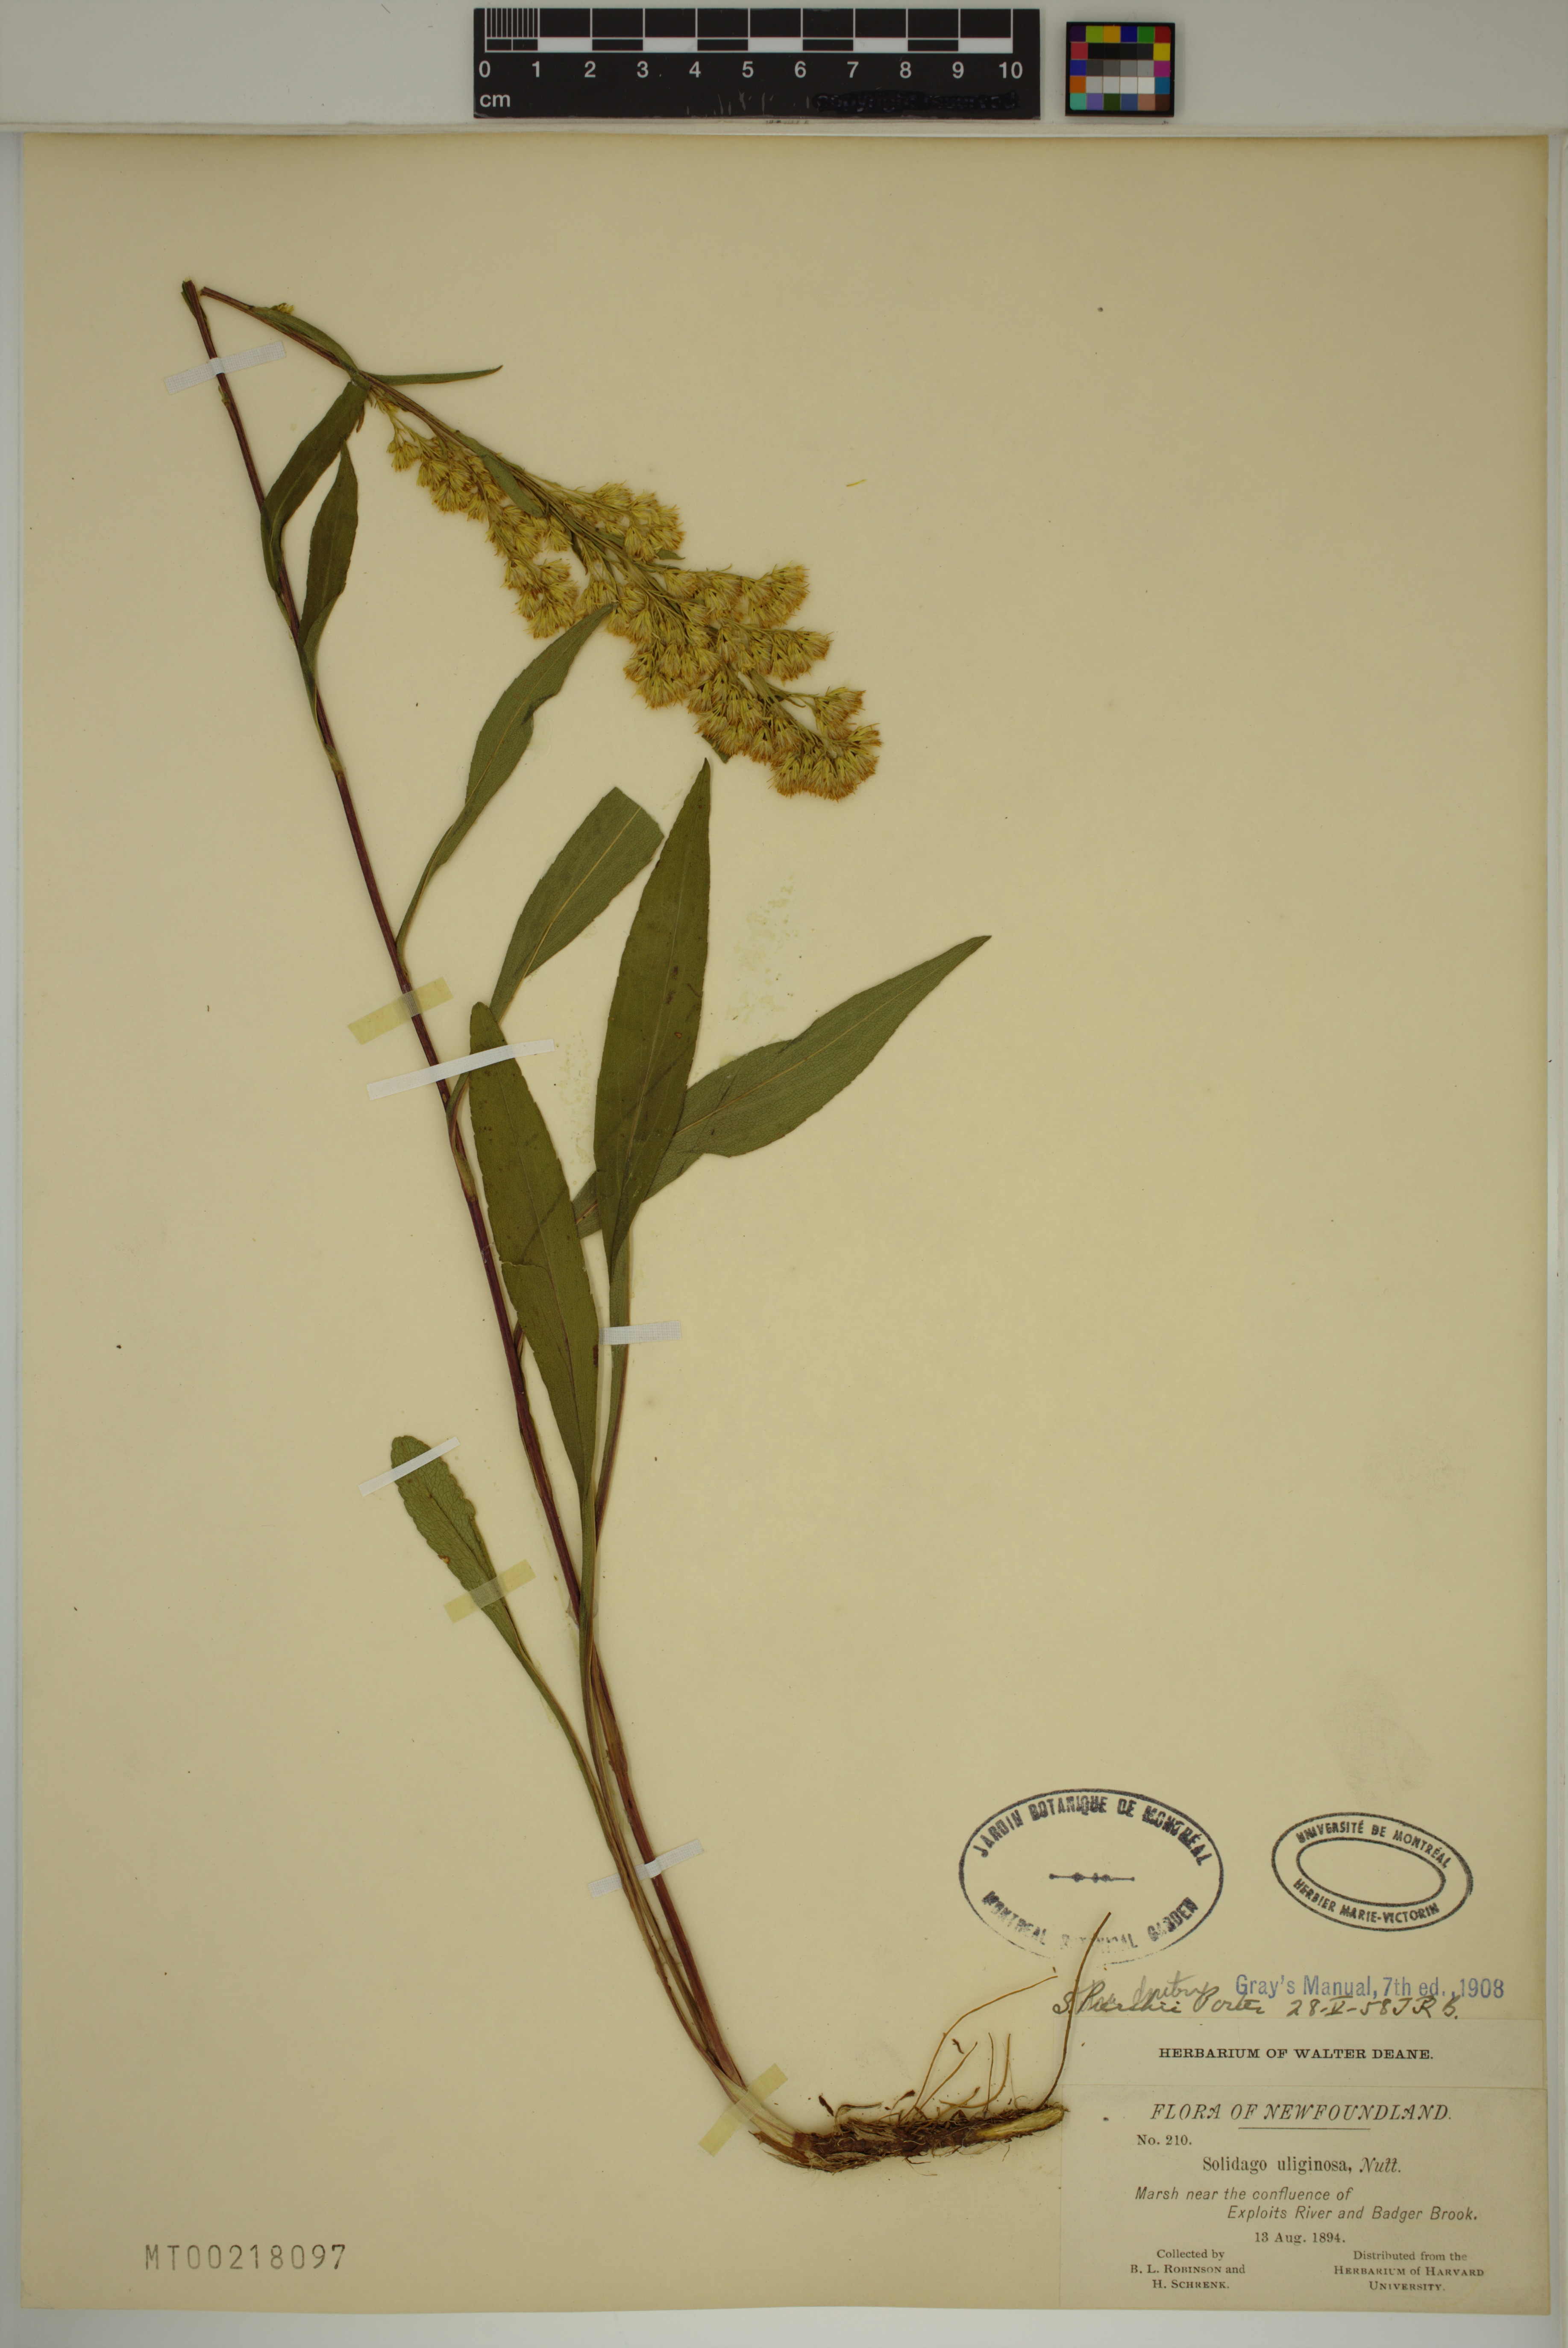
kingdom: Plantae
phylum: Tracheophyta
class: Magnoliopsida
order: Asterales
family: Asteraceae
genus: Solidago
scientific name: Solidago uliginosa
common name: Bog goldenrod
